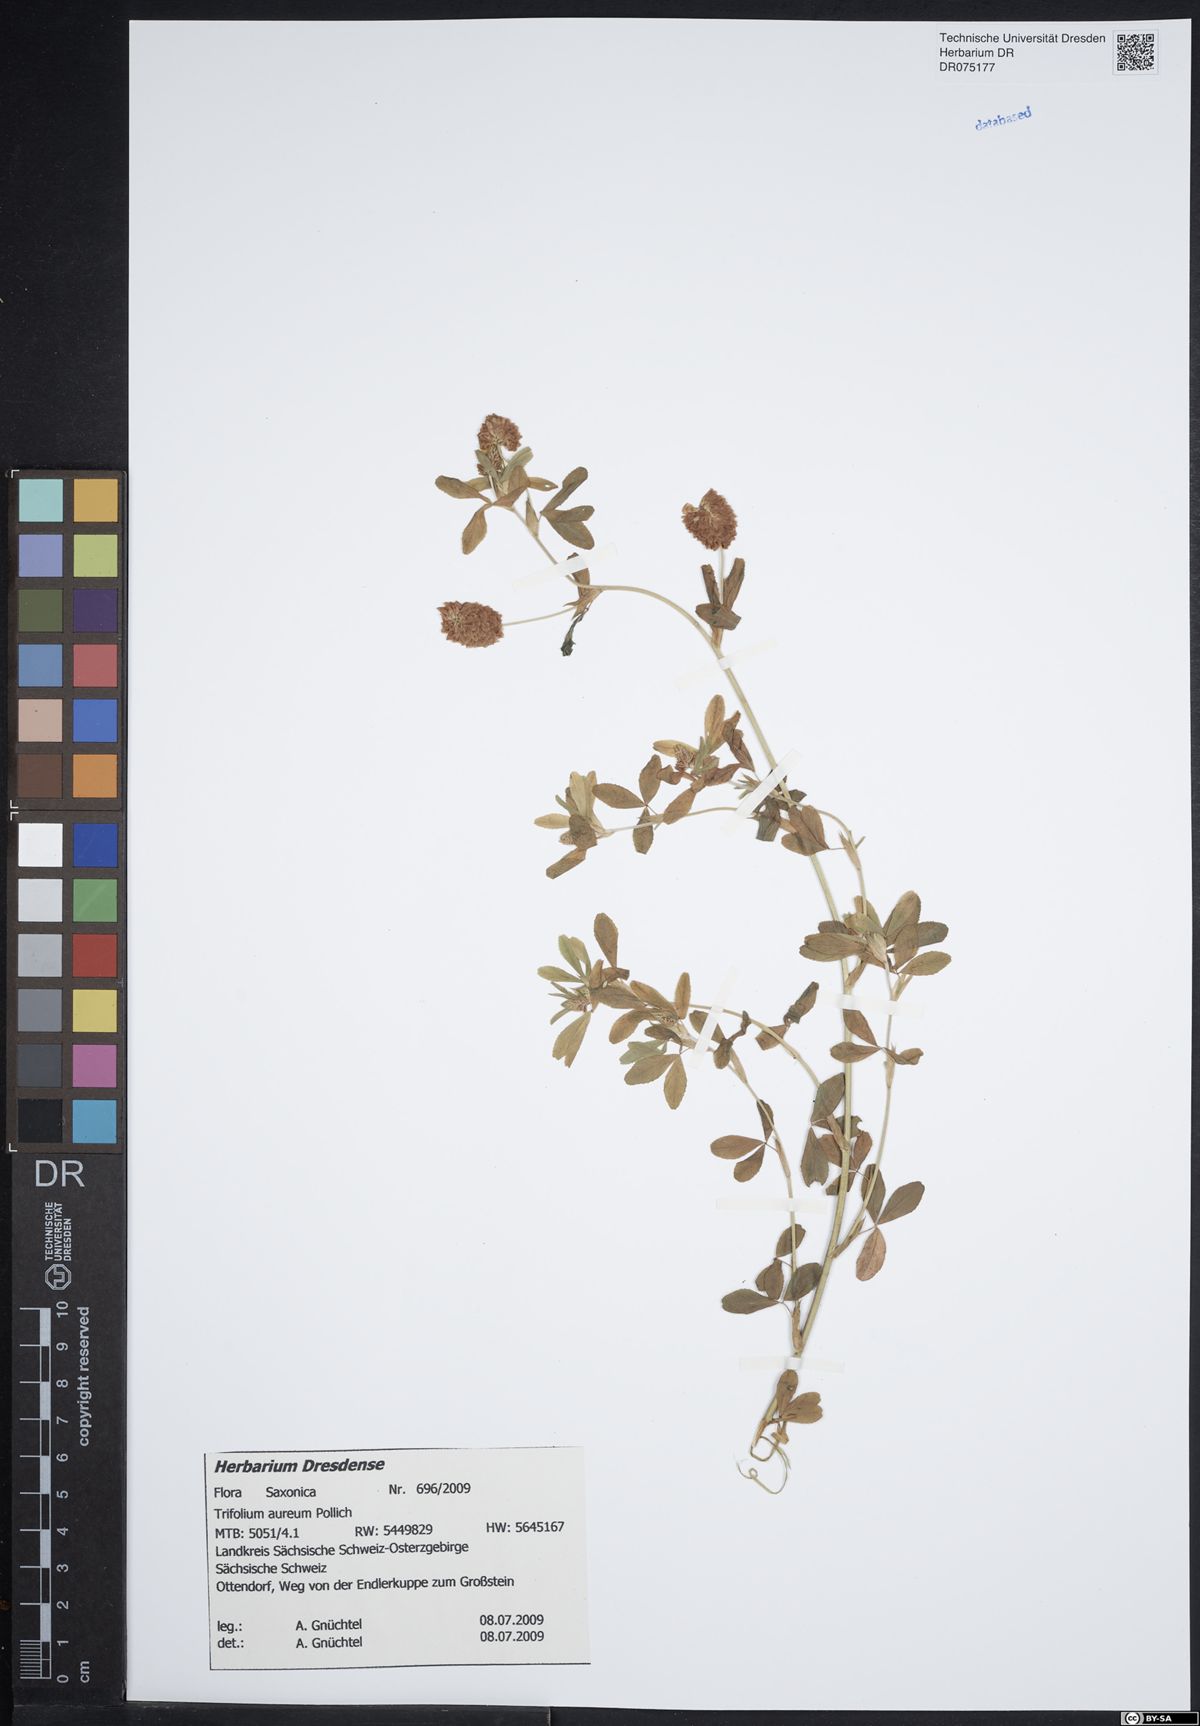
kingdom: Plantae
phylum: Tracheophyta
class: Magnoliopsida
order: Fabales
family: Fabaceae
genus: Trifolium
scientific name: Trifolium aureum
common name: Golden clover
